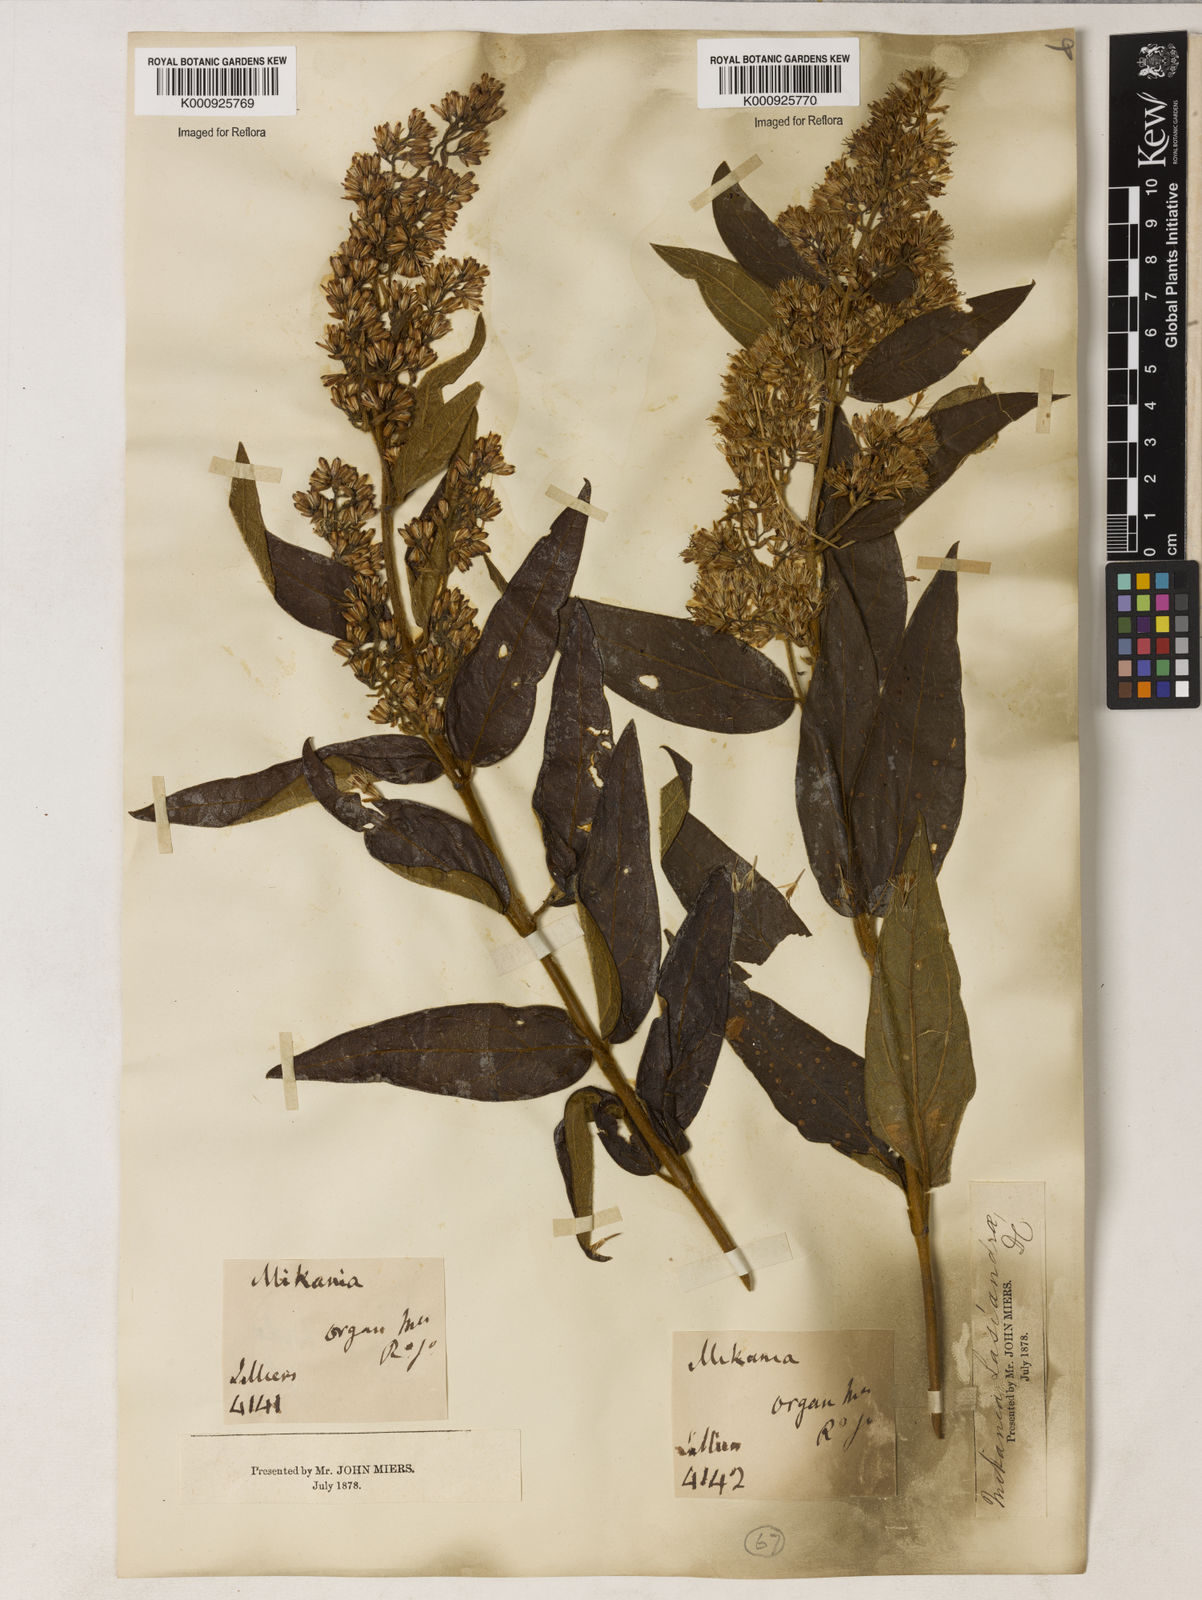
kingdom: Plantae
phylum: Tracheophyta
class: Magnoliopsida
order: Asterales
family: Asteraceae
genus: Mikania
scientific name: Mikania lasiandrae
